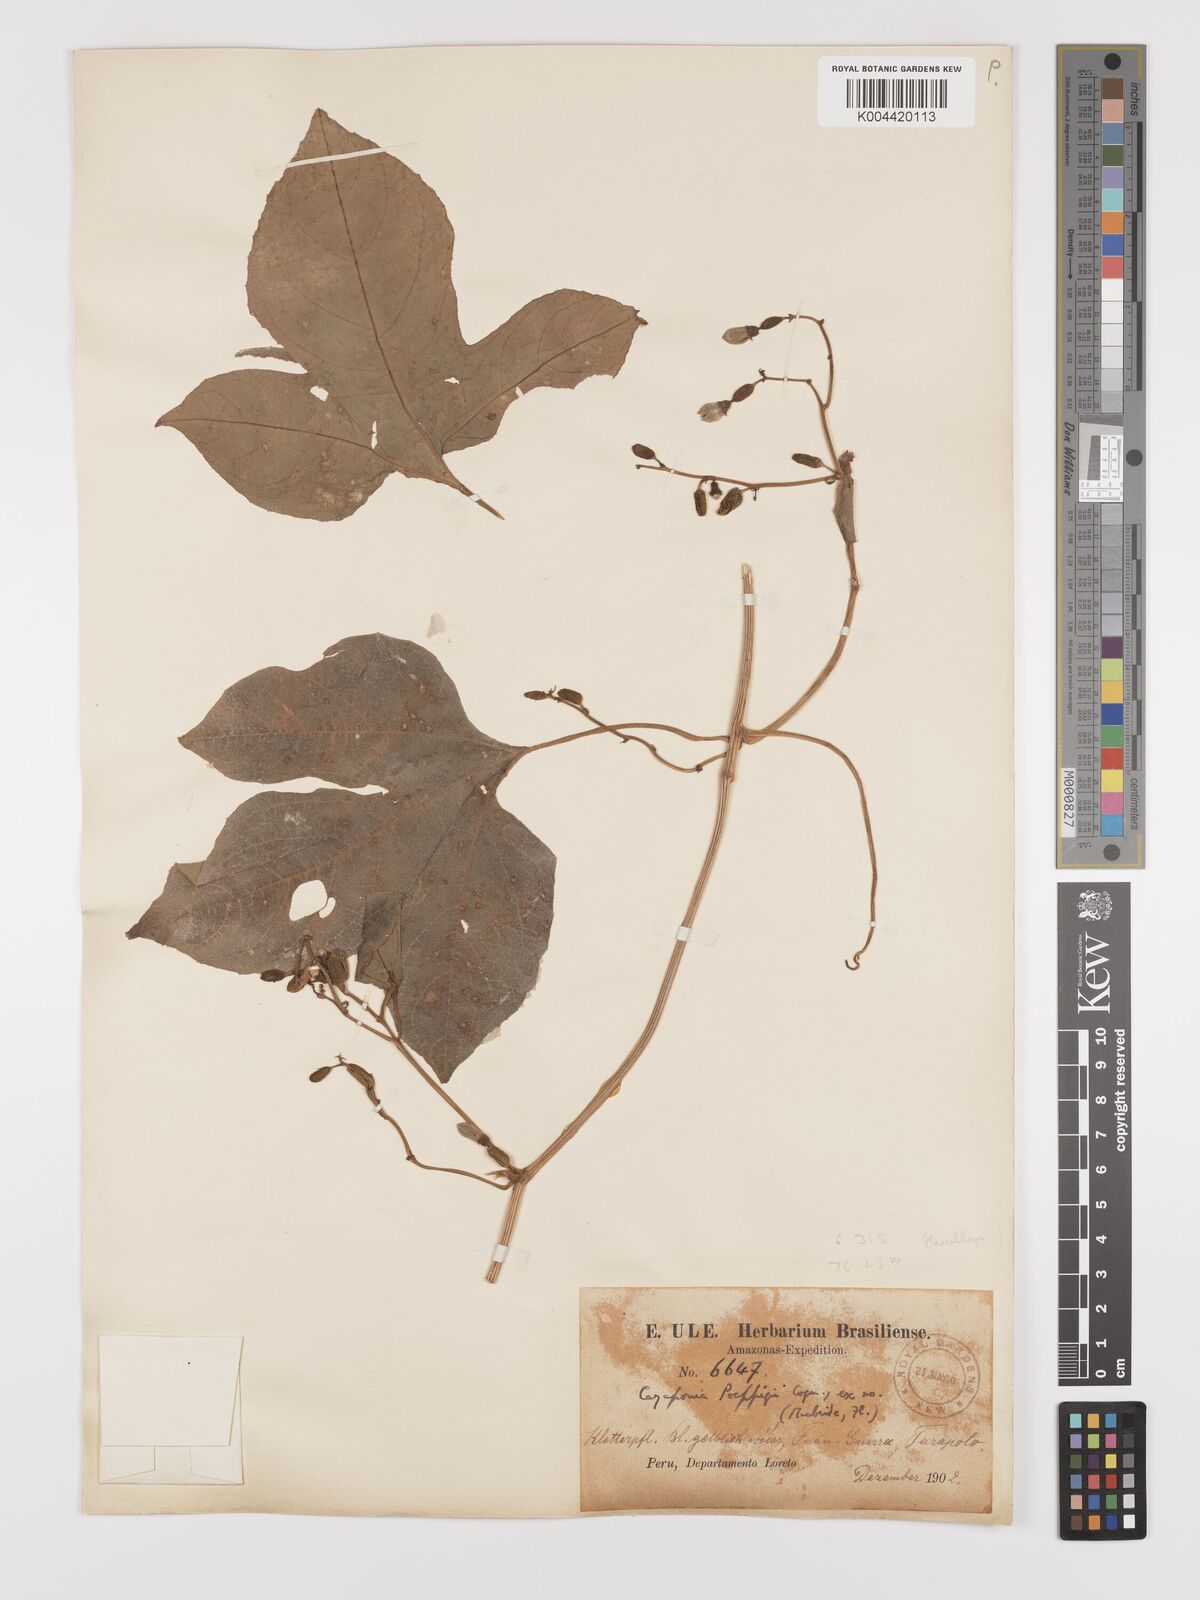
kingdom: Plantae
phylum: Tracheophyta
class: Magnoliopsida
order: Cucurbitales
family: Cucurbitaceae
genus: Cayaponia
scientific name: Cayaponia glandulosa
